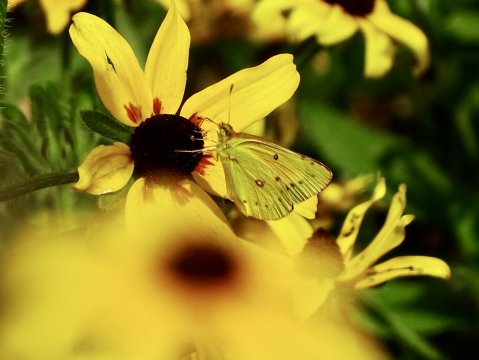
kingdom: Animalia
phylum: Arthropoda
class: Insecta
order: Lepidoptera
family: Pieridae
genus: Colias
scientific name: Colias eurytheme
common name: Orange Sulphur
